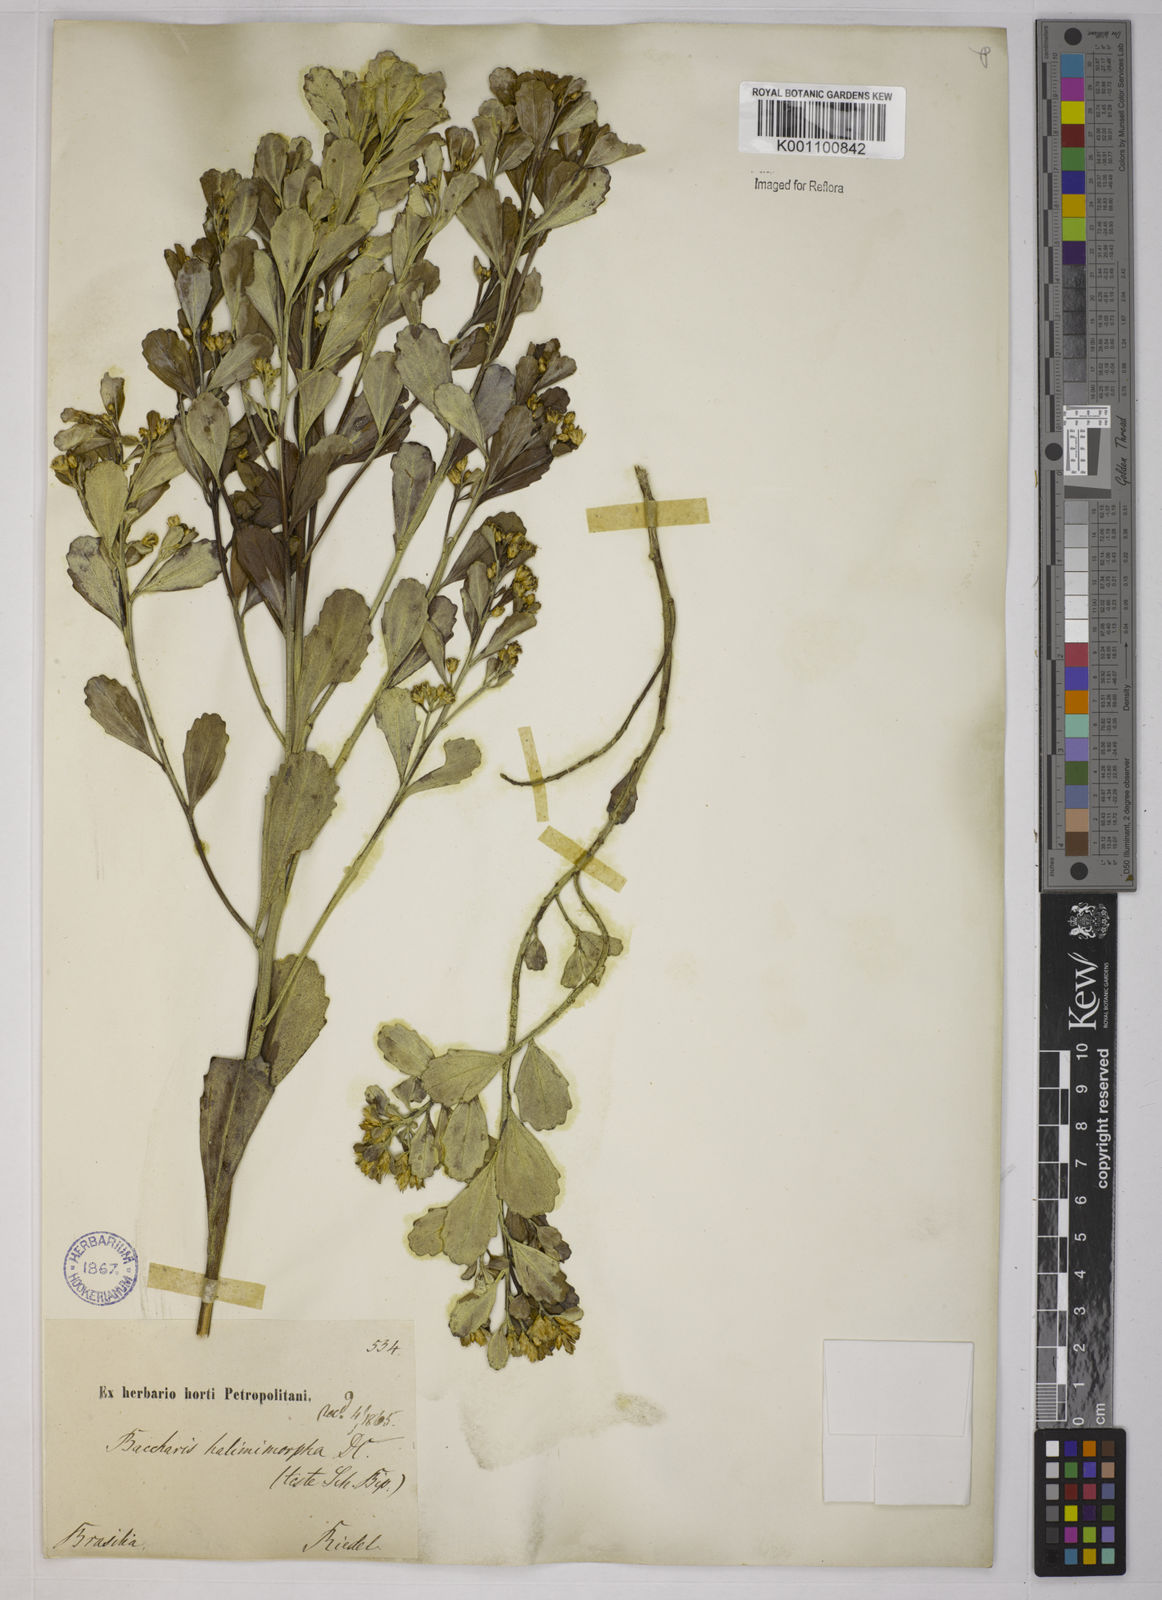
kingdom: Plantae
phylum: Tracheophyta
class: Magnoliopsida
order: Asterales
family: Asteraceae
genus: Baccharis
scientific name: Baccharis subopposita
